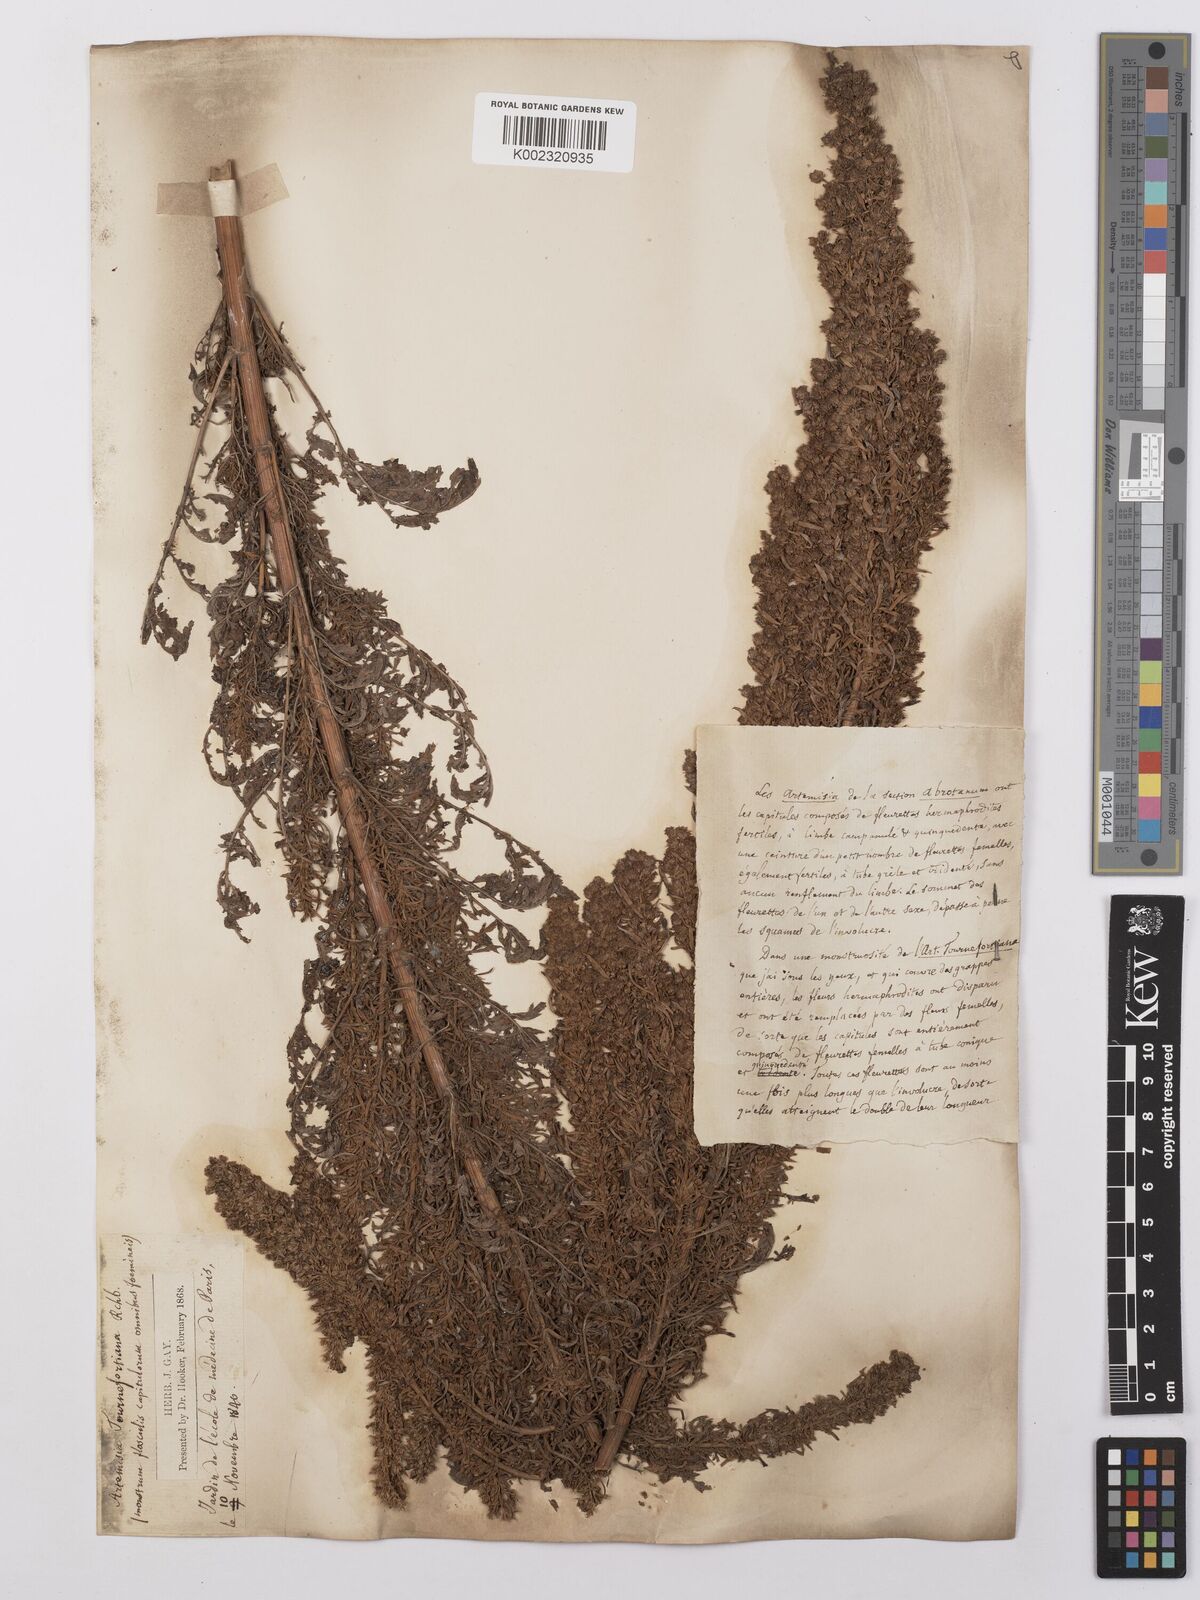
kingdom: Plantae
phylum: Tracheophyta
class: Magnoliopsida
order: Asterales
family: Asteraceae
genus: Artemisia
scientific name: Artemisia tournefortiana
